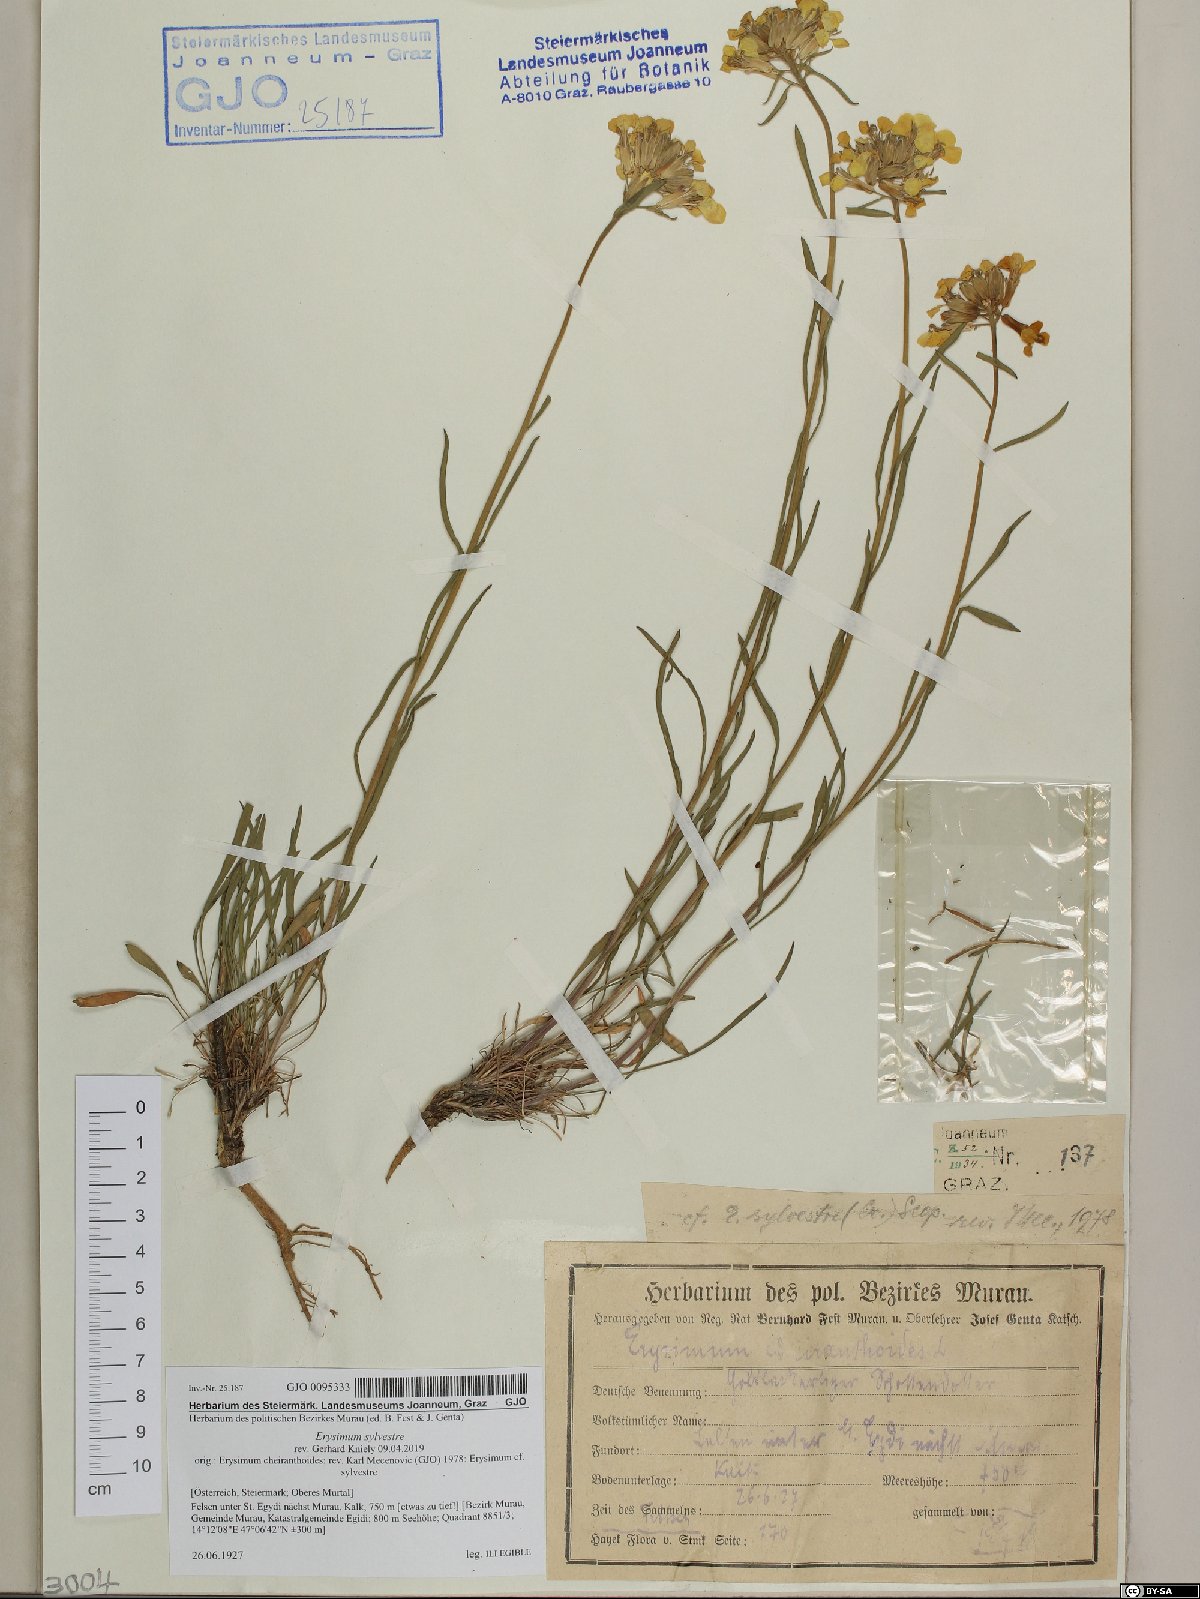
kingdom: Plantae
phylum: Tracheophyta
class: Magnoliopsida
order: Brassicales
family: Brassicaceae
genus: Erysimum
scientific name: Erysimum sylvestre
